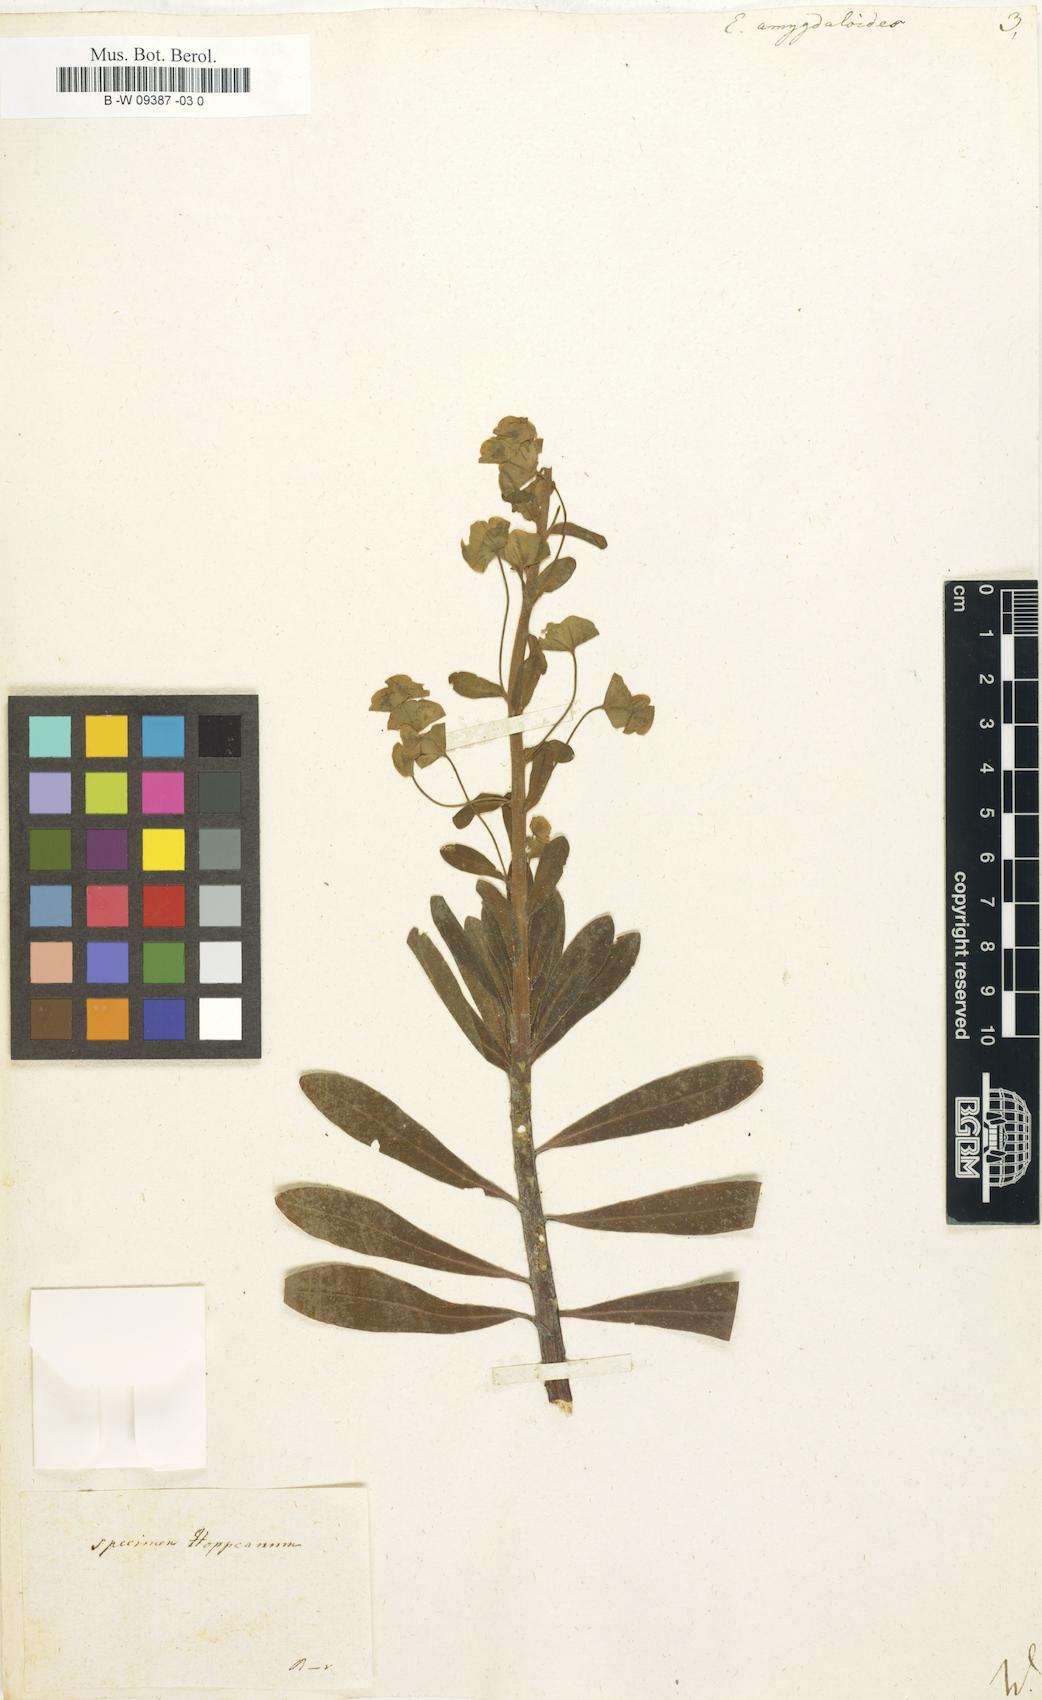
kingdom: Plantae
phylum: Tracheophyta
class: Magnoliopsida
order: Malpighiales
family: Euphorbiaceae
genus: Euphorbia
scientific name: Euphorbia amygdaloides
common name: Wood spurge
